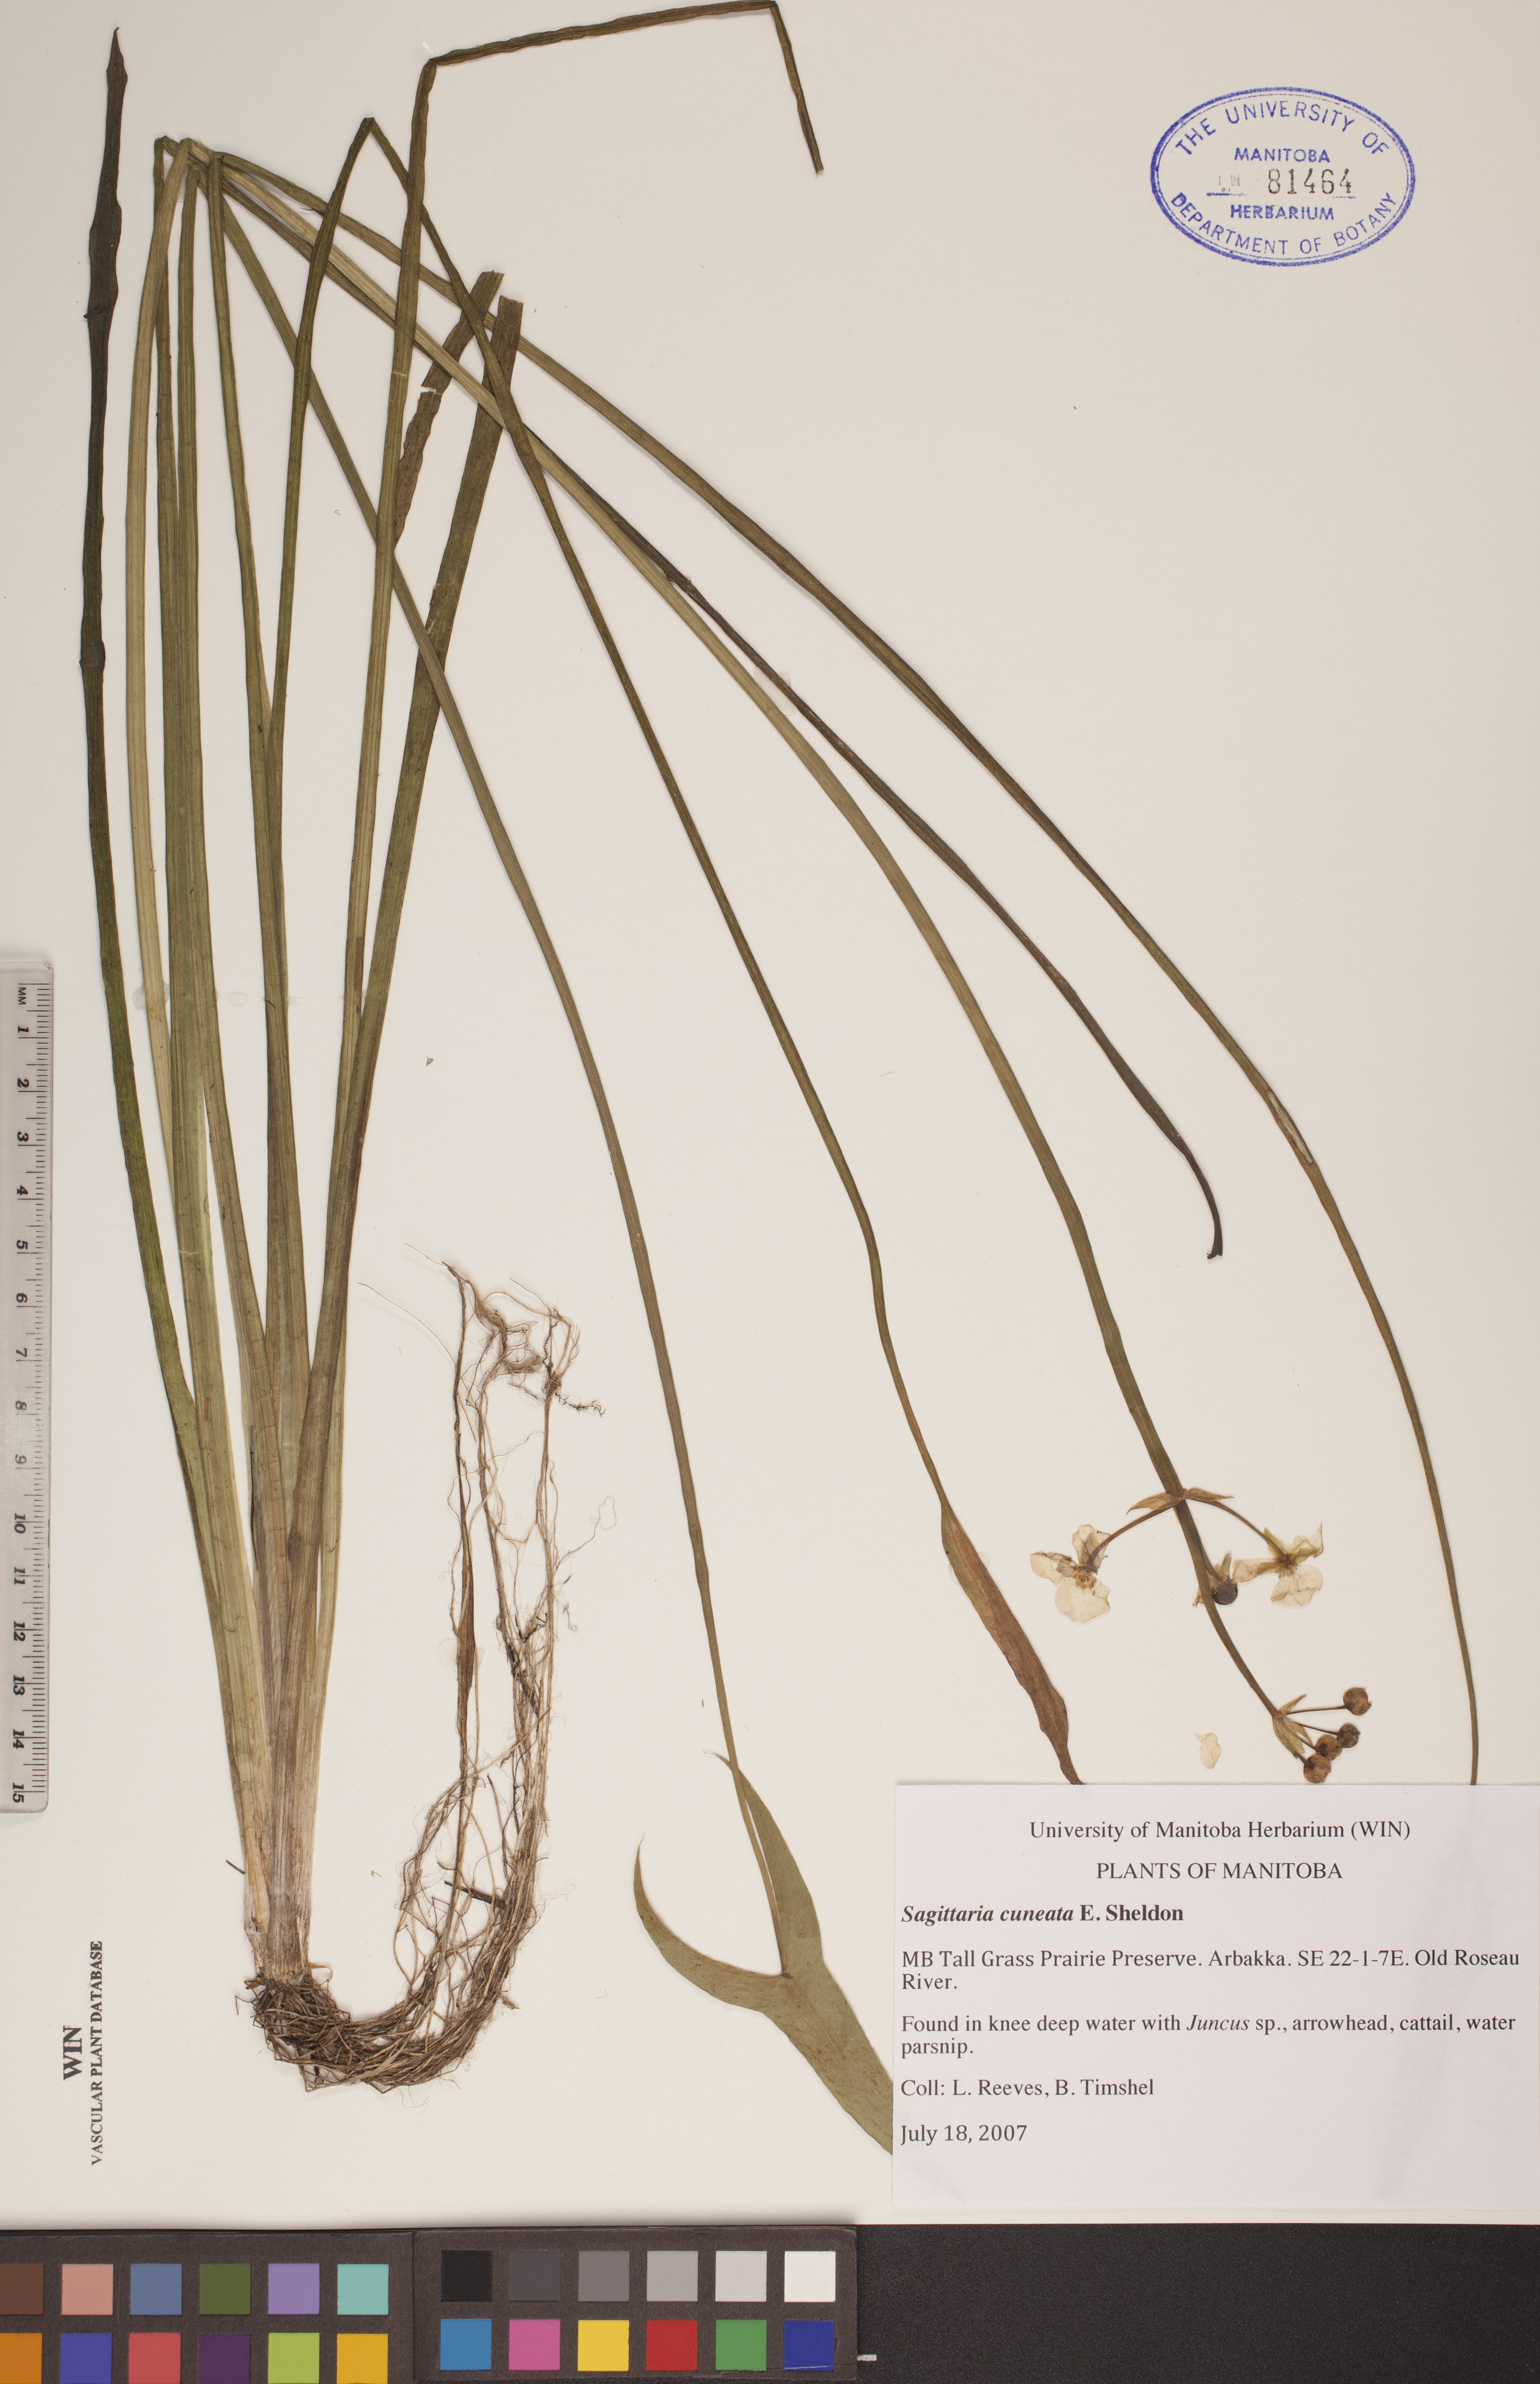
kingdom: Plantae
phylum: Tracheophyta
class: Liliopsida
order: Alismatales
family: Alismataceae
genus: Sagittaria
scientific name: Sagittaria cuneata
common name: Northern arrowhead
